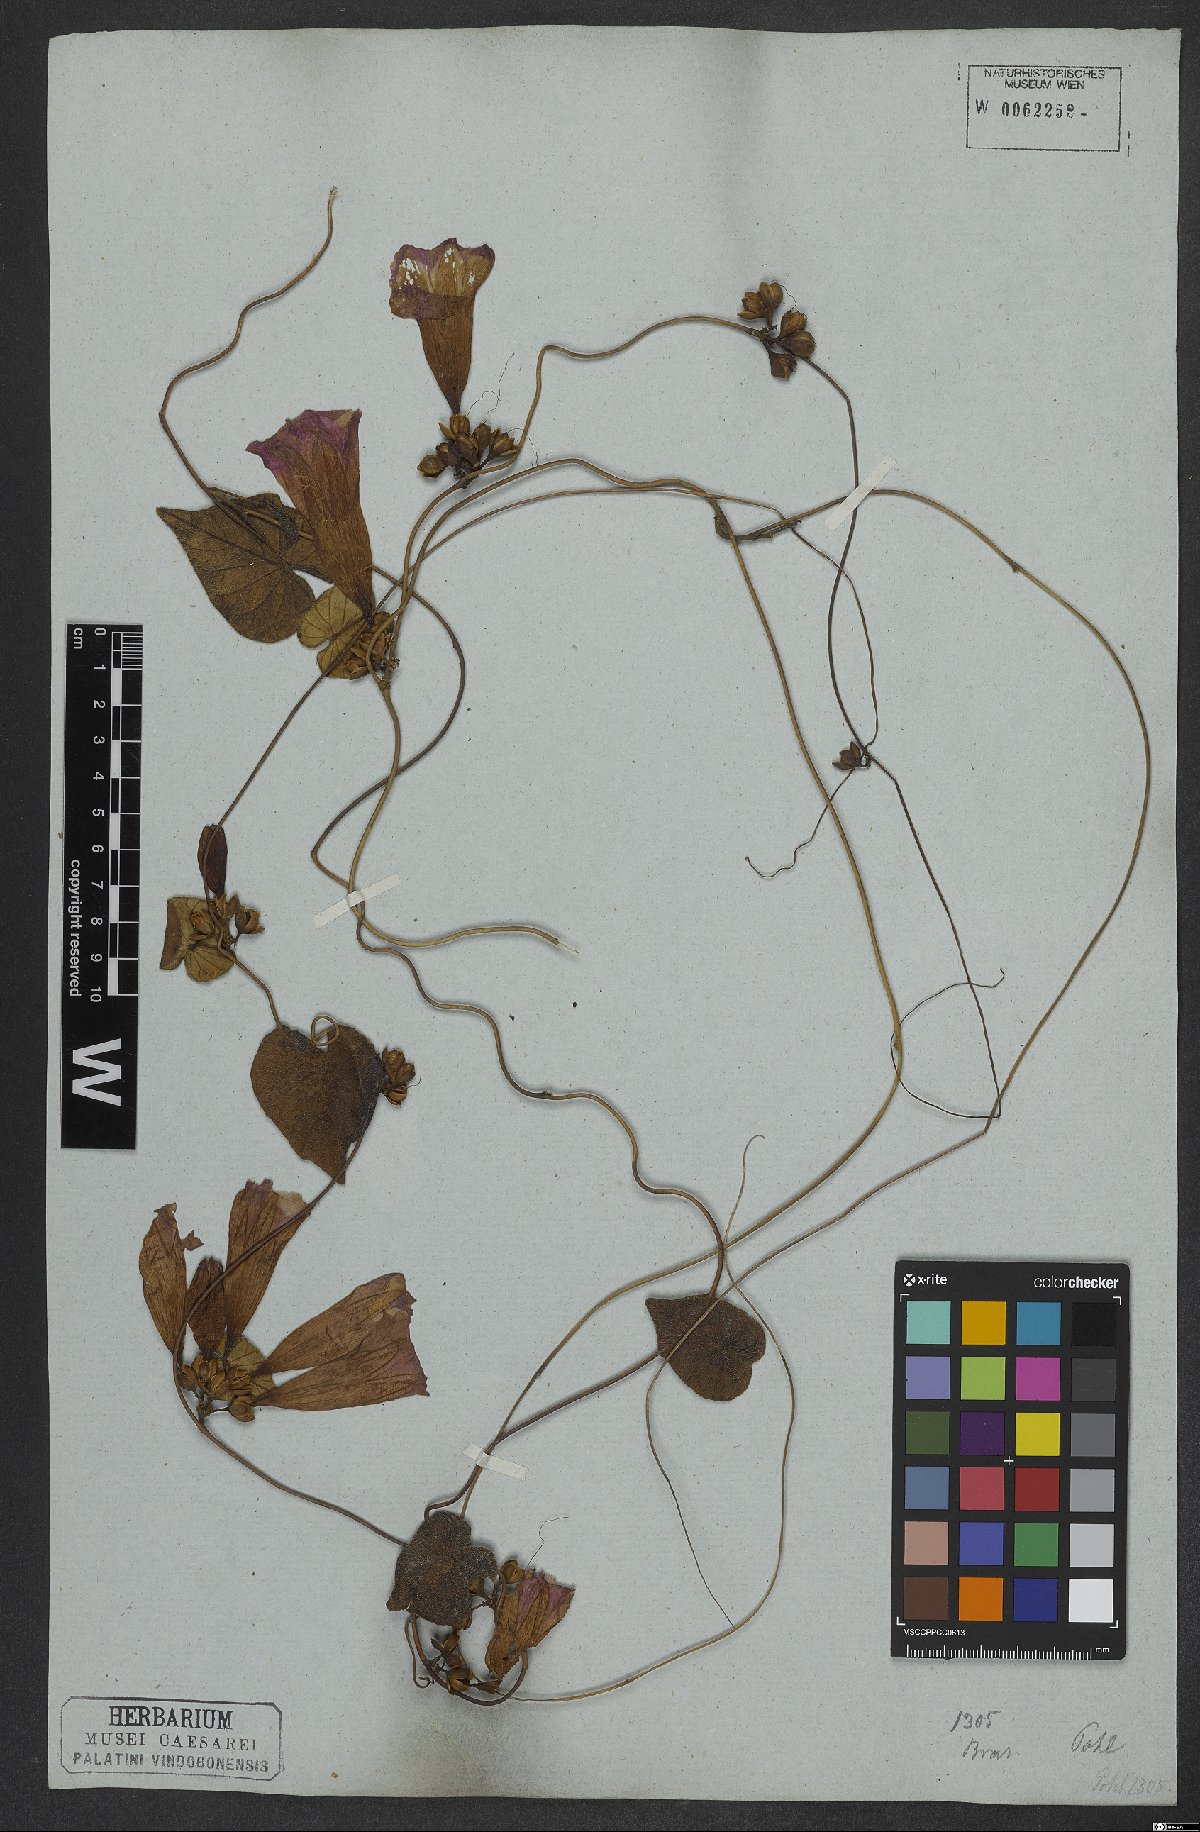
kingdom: Plantae
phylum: Tracheophyta
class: Magnoliopsida
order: Solanales
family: Convolvulaceae
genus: Ipomoea
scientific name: Ipomoea hildebrandtii
